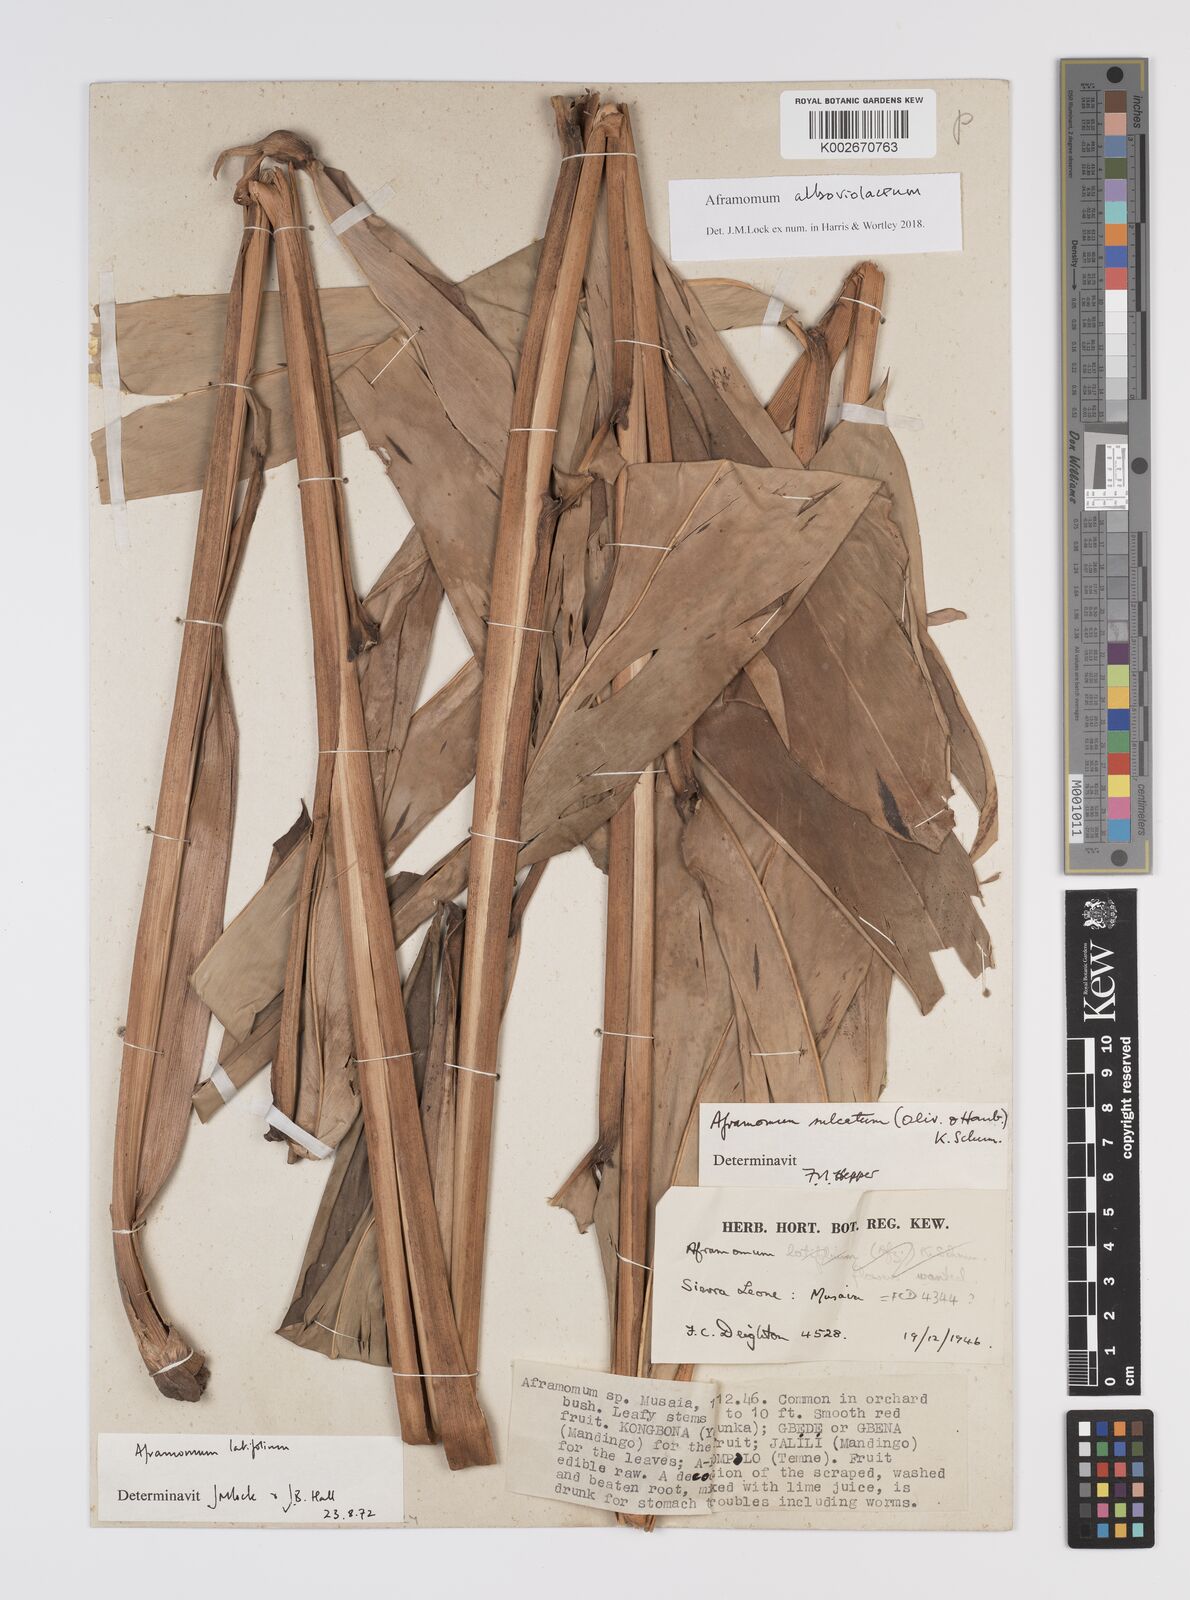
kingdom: Plantae
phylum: Tracheophyta
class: Liliopsida
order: Zingiberales
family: Zingiberaceae
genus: Aframomum
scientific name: Aframomum alboviolaceum
